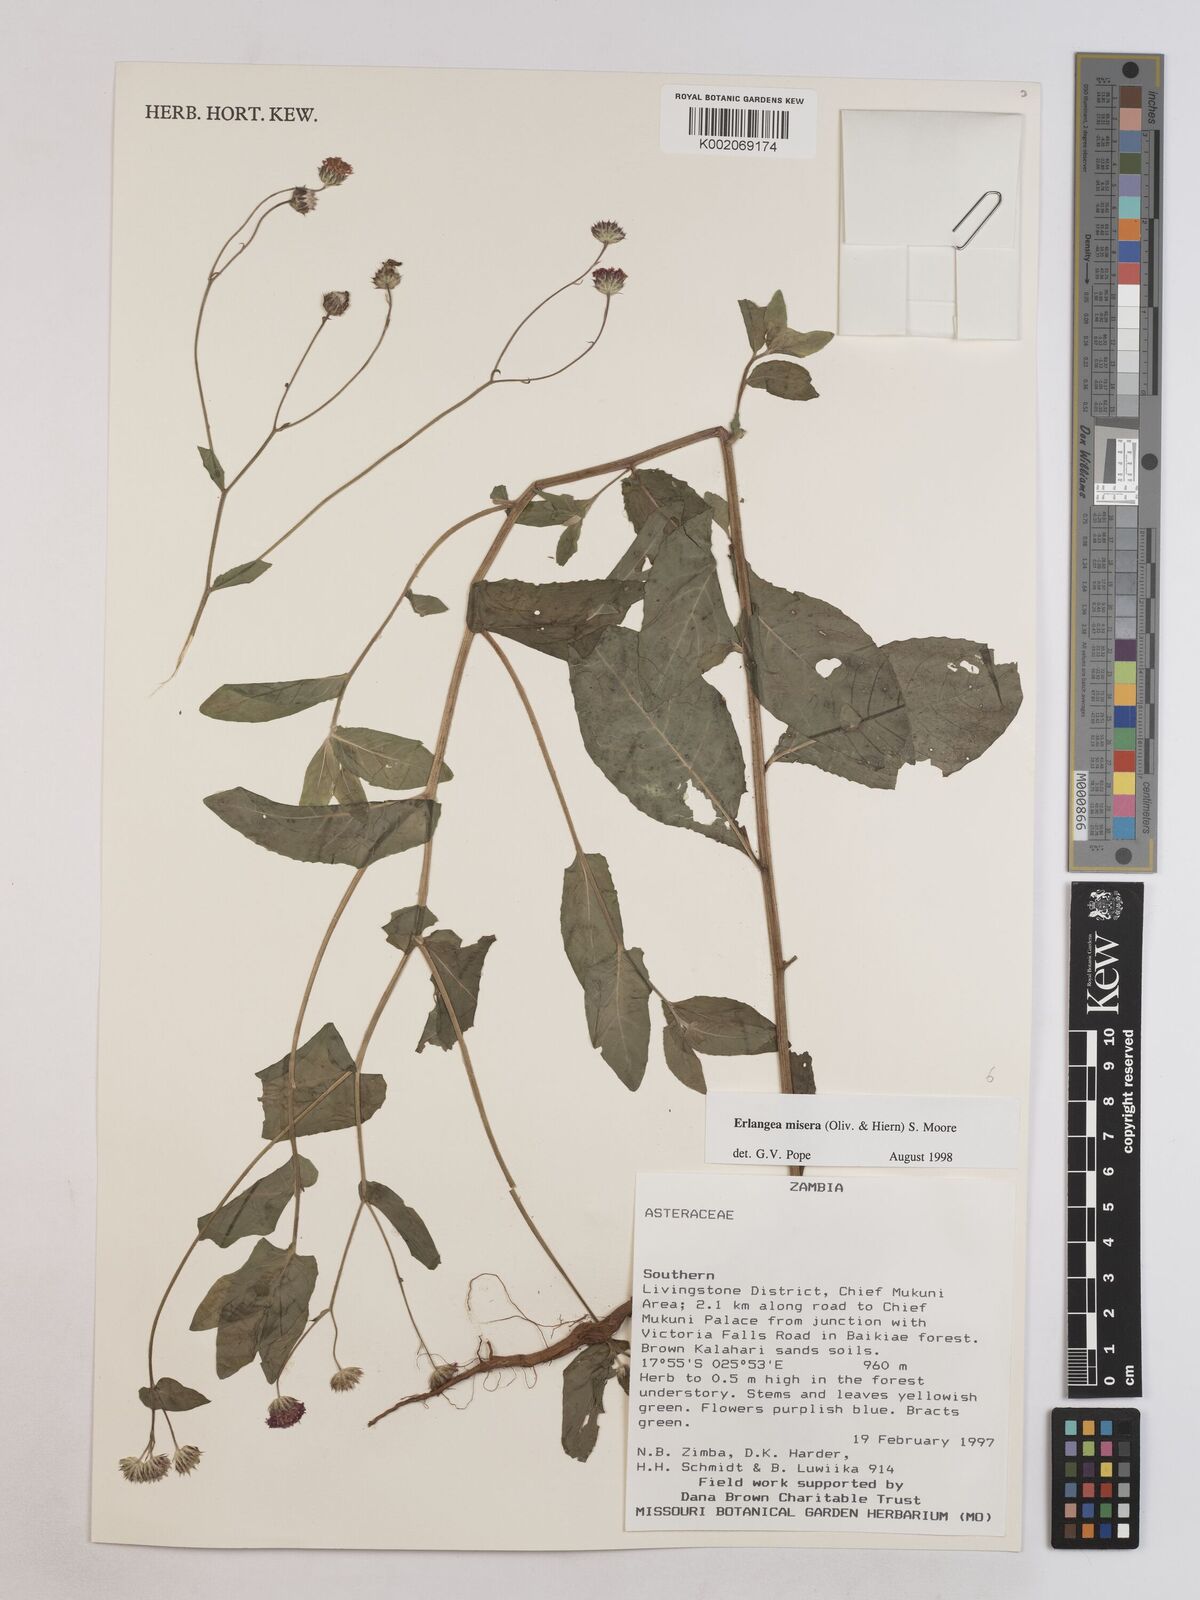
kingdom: Plantae
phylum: Tracheophyta
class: Magnoliopsida
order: Asterales
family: Asteraceae
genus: Erlangea
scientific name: Erlangea misera
